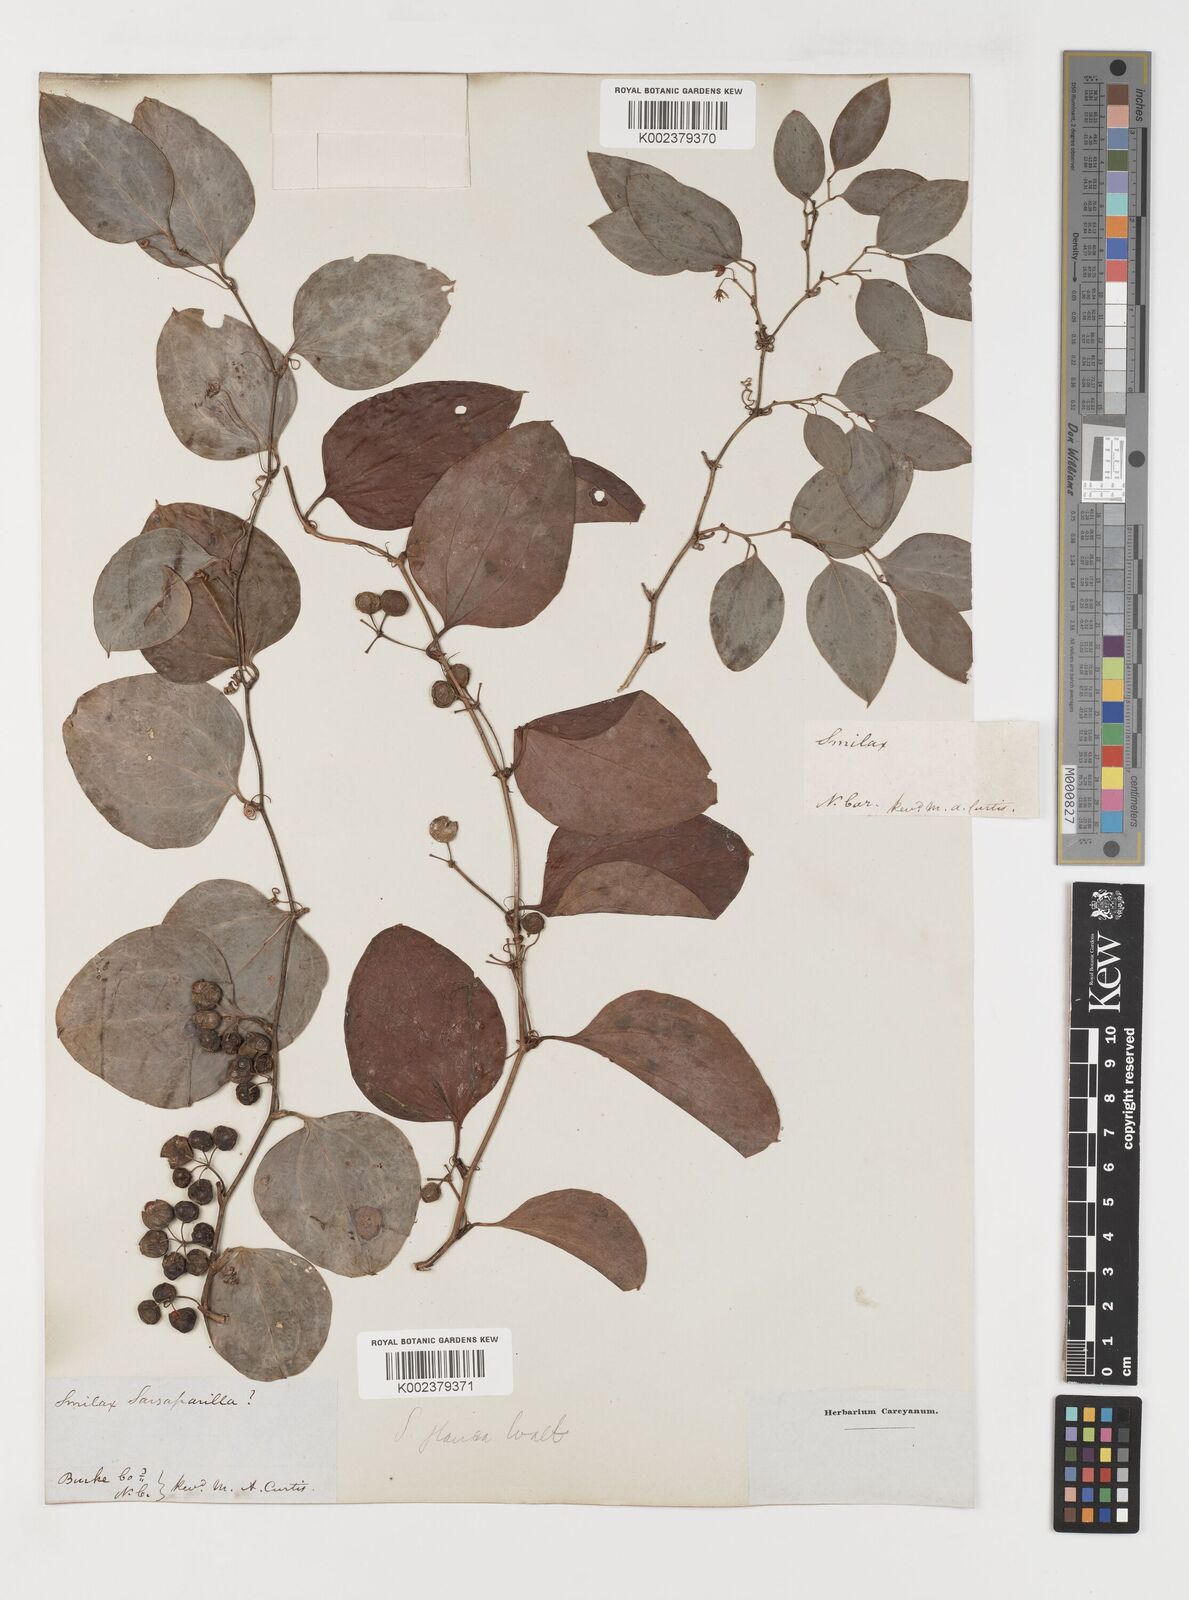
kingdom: Plantae
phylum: Tracheophyta
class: Liliopsida
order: Liliales
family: Smilacaceae
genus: Smilax
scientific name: Smilax glauca
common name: Cat greenbrier
